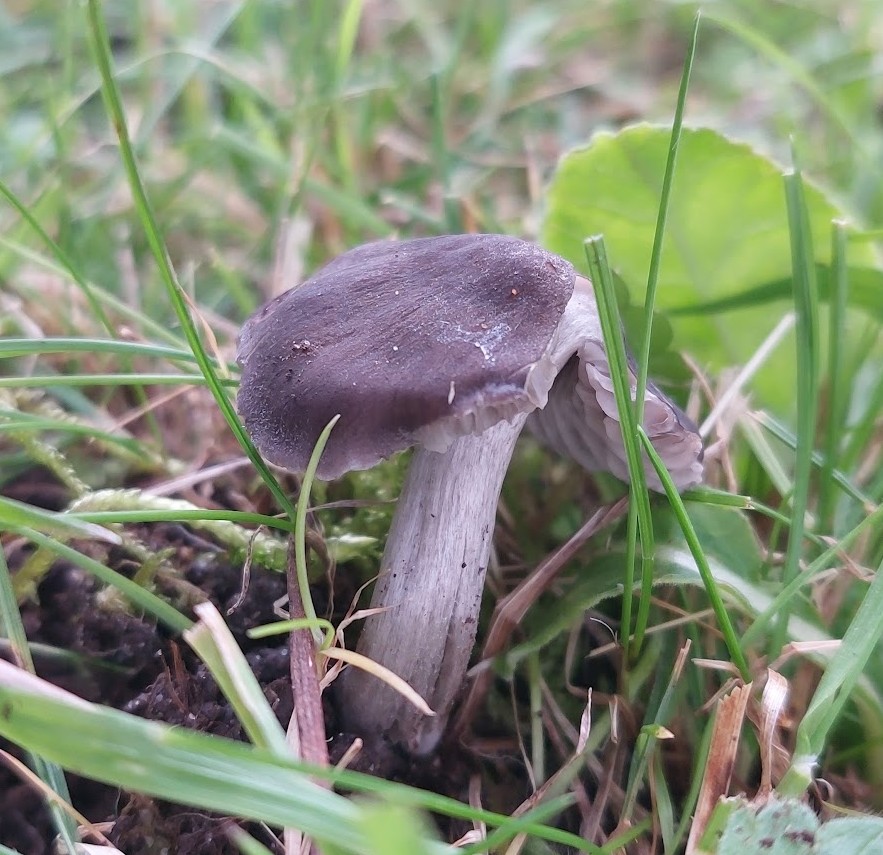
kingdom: Fungi
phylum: Basidiomycota
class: Agaricomycetes
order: Agaricales
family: Tricholomataceae
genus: Dermoloma
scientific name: Dermoloma cuneifolium
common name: Crazed cap
